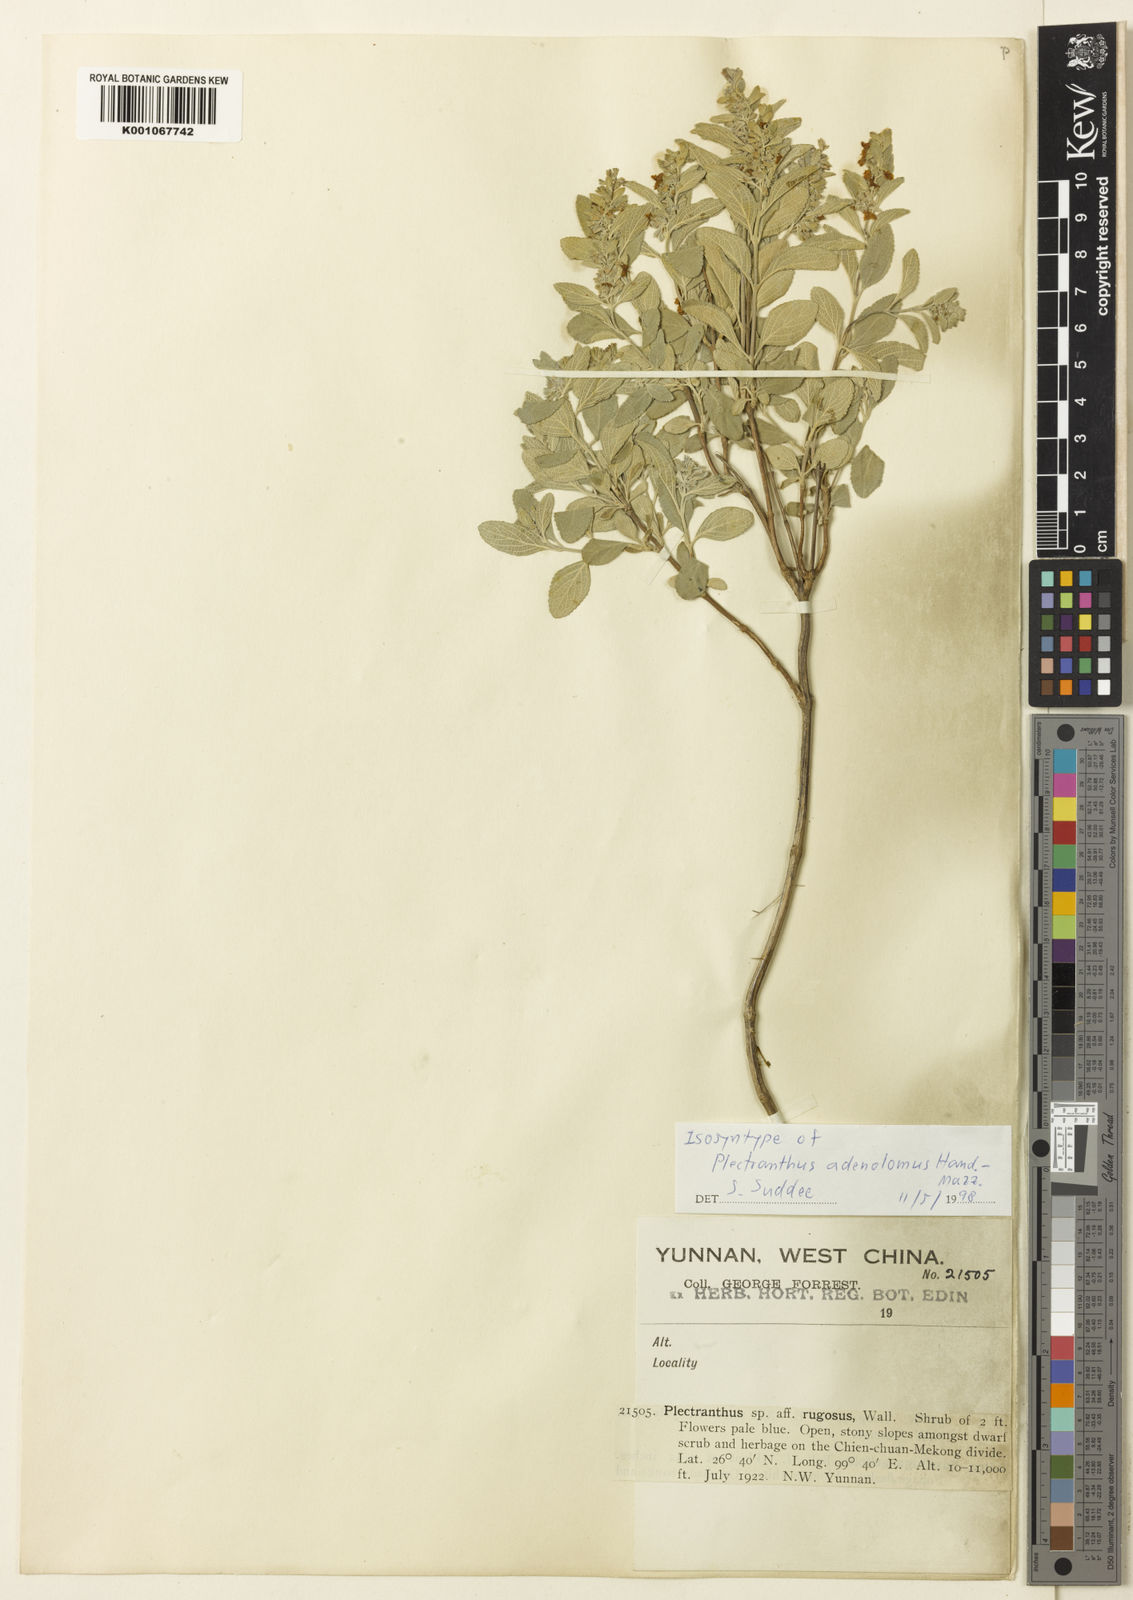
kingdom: Plantae
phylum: Tracheophyta
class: Magnoliopsida
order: Lamiales
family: Lamiaceae
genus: Isodon
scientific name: Isodon adenolomus
